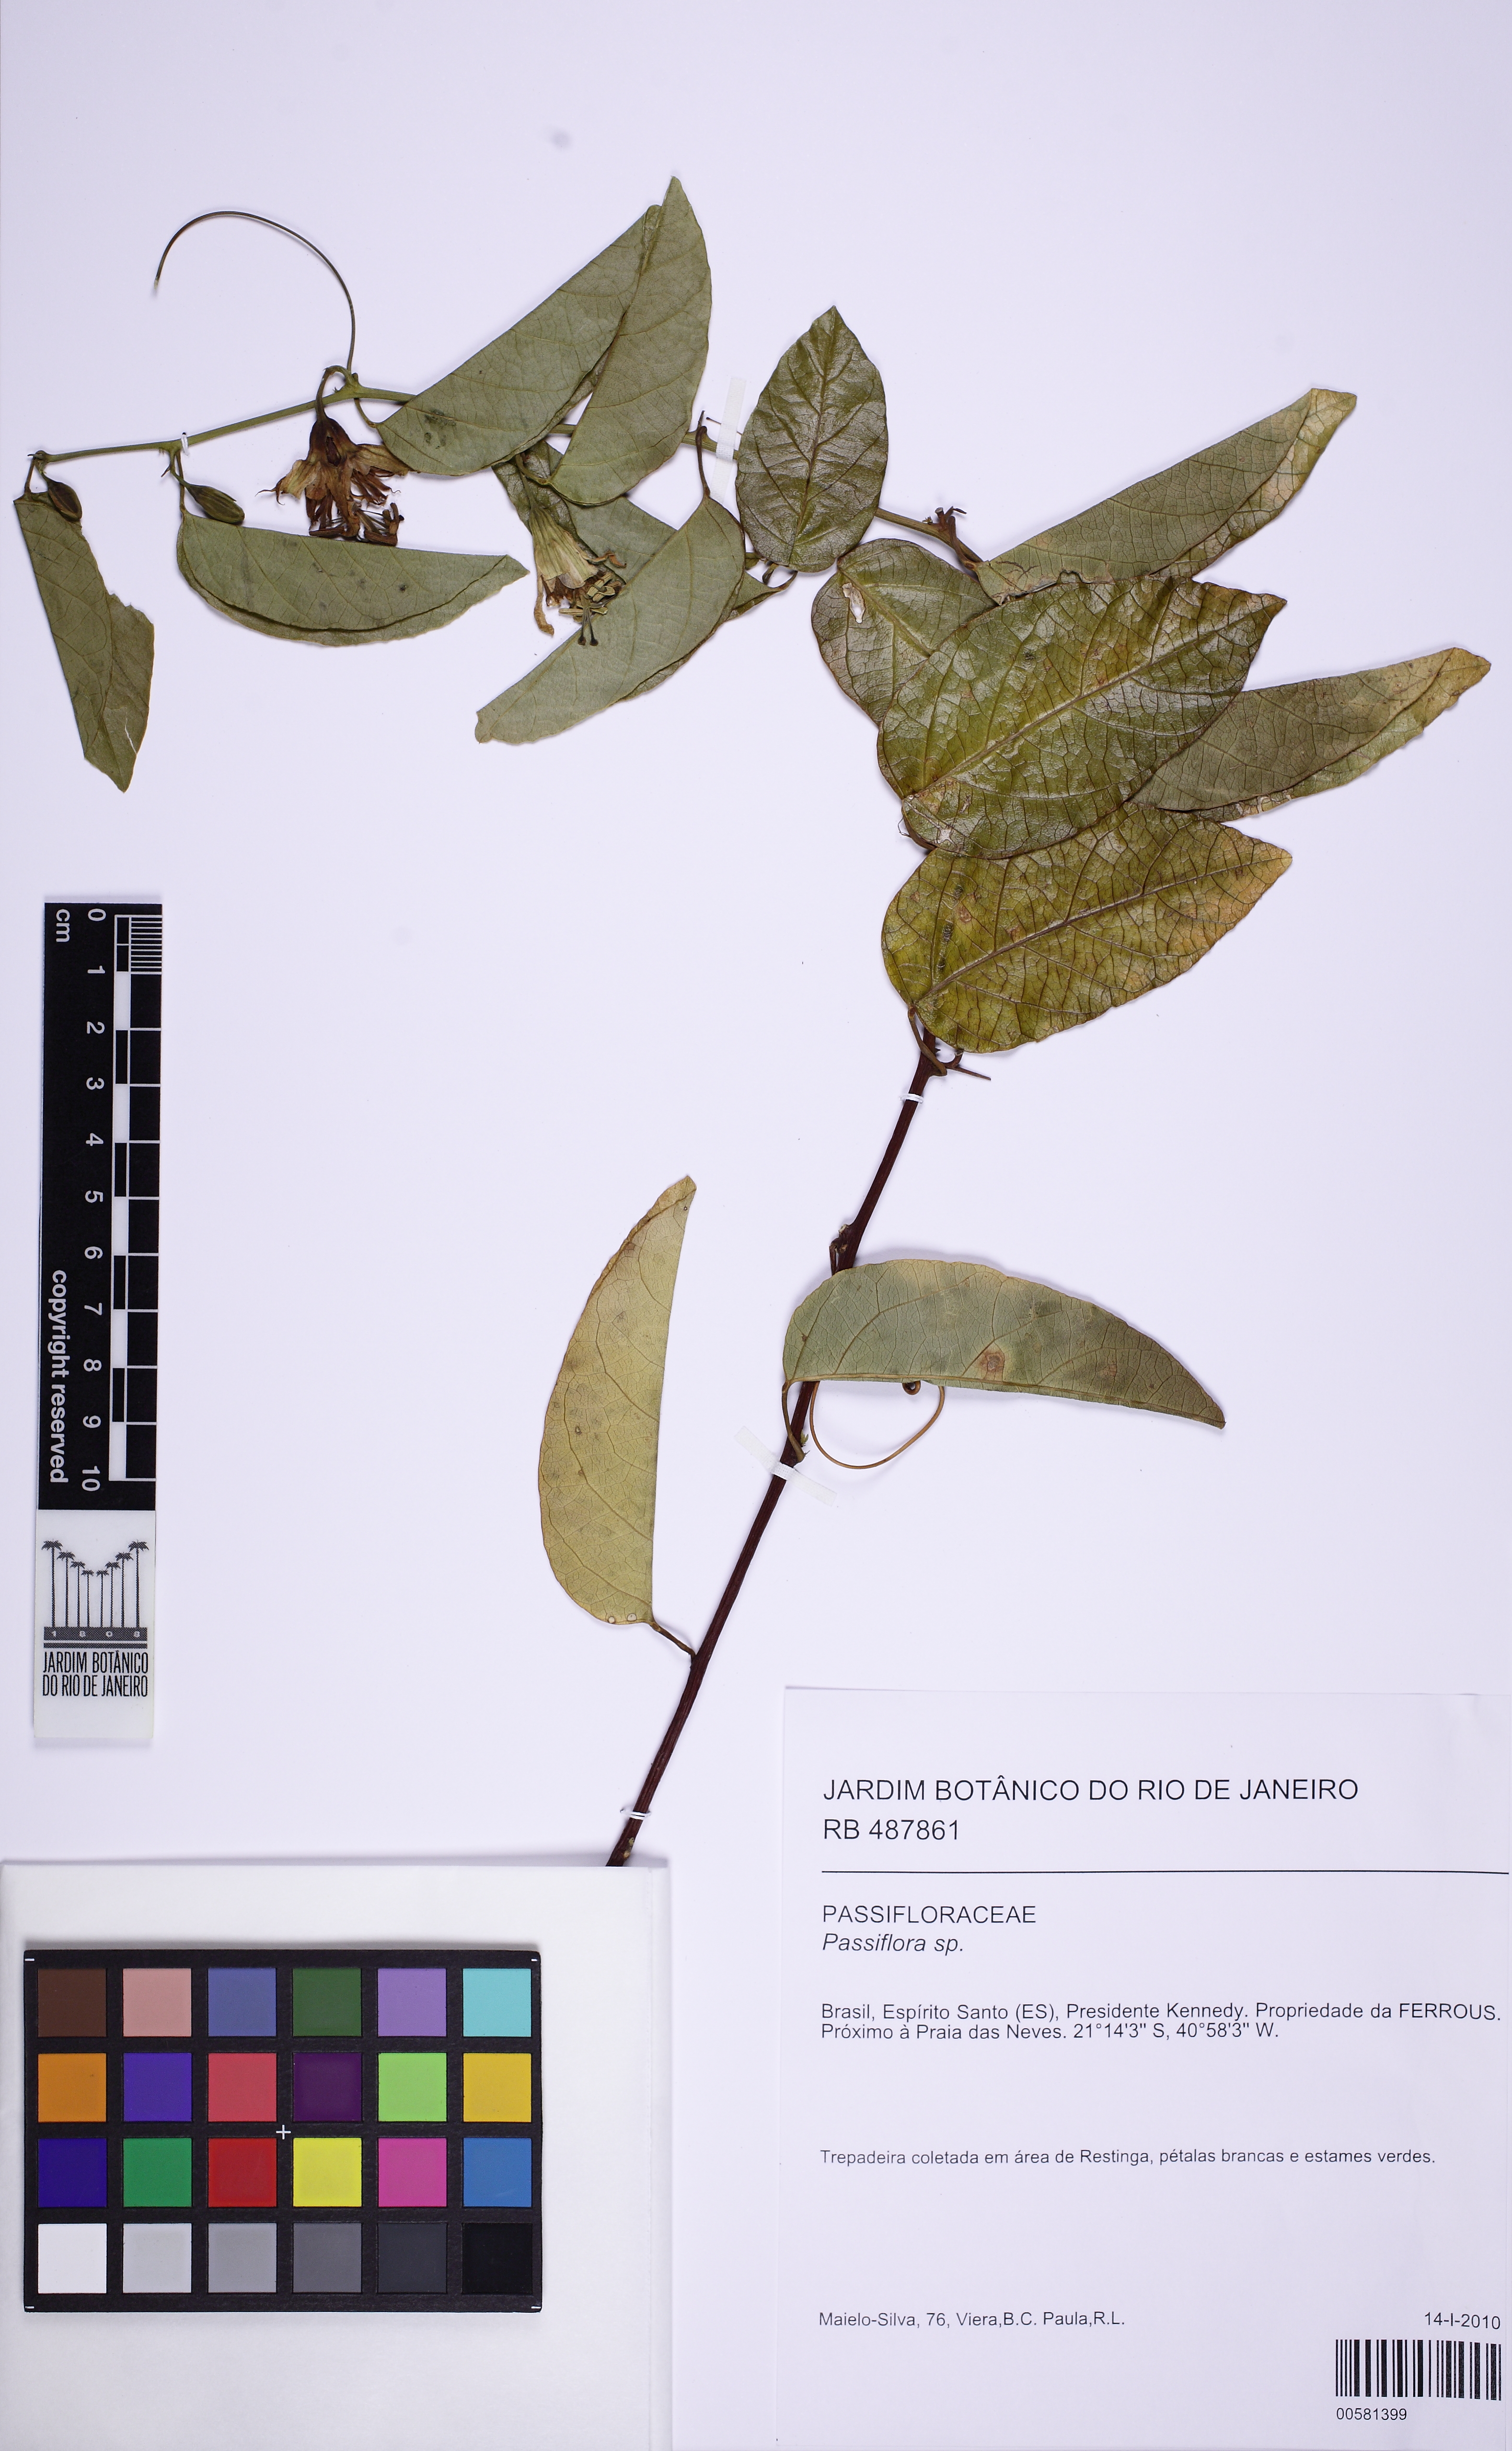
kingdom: Plantae
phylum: Tracheophyta
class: Magnoliopsida
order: Malpighiales
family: Passifloraceae
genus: Passiflora
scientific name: Passiflora pentagona
